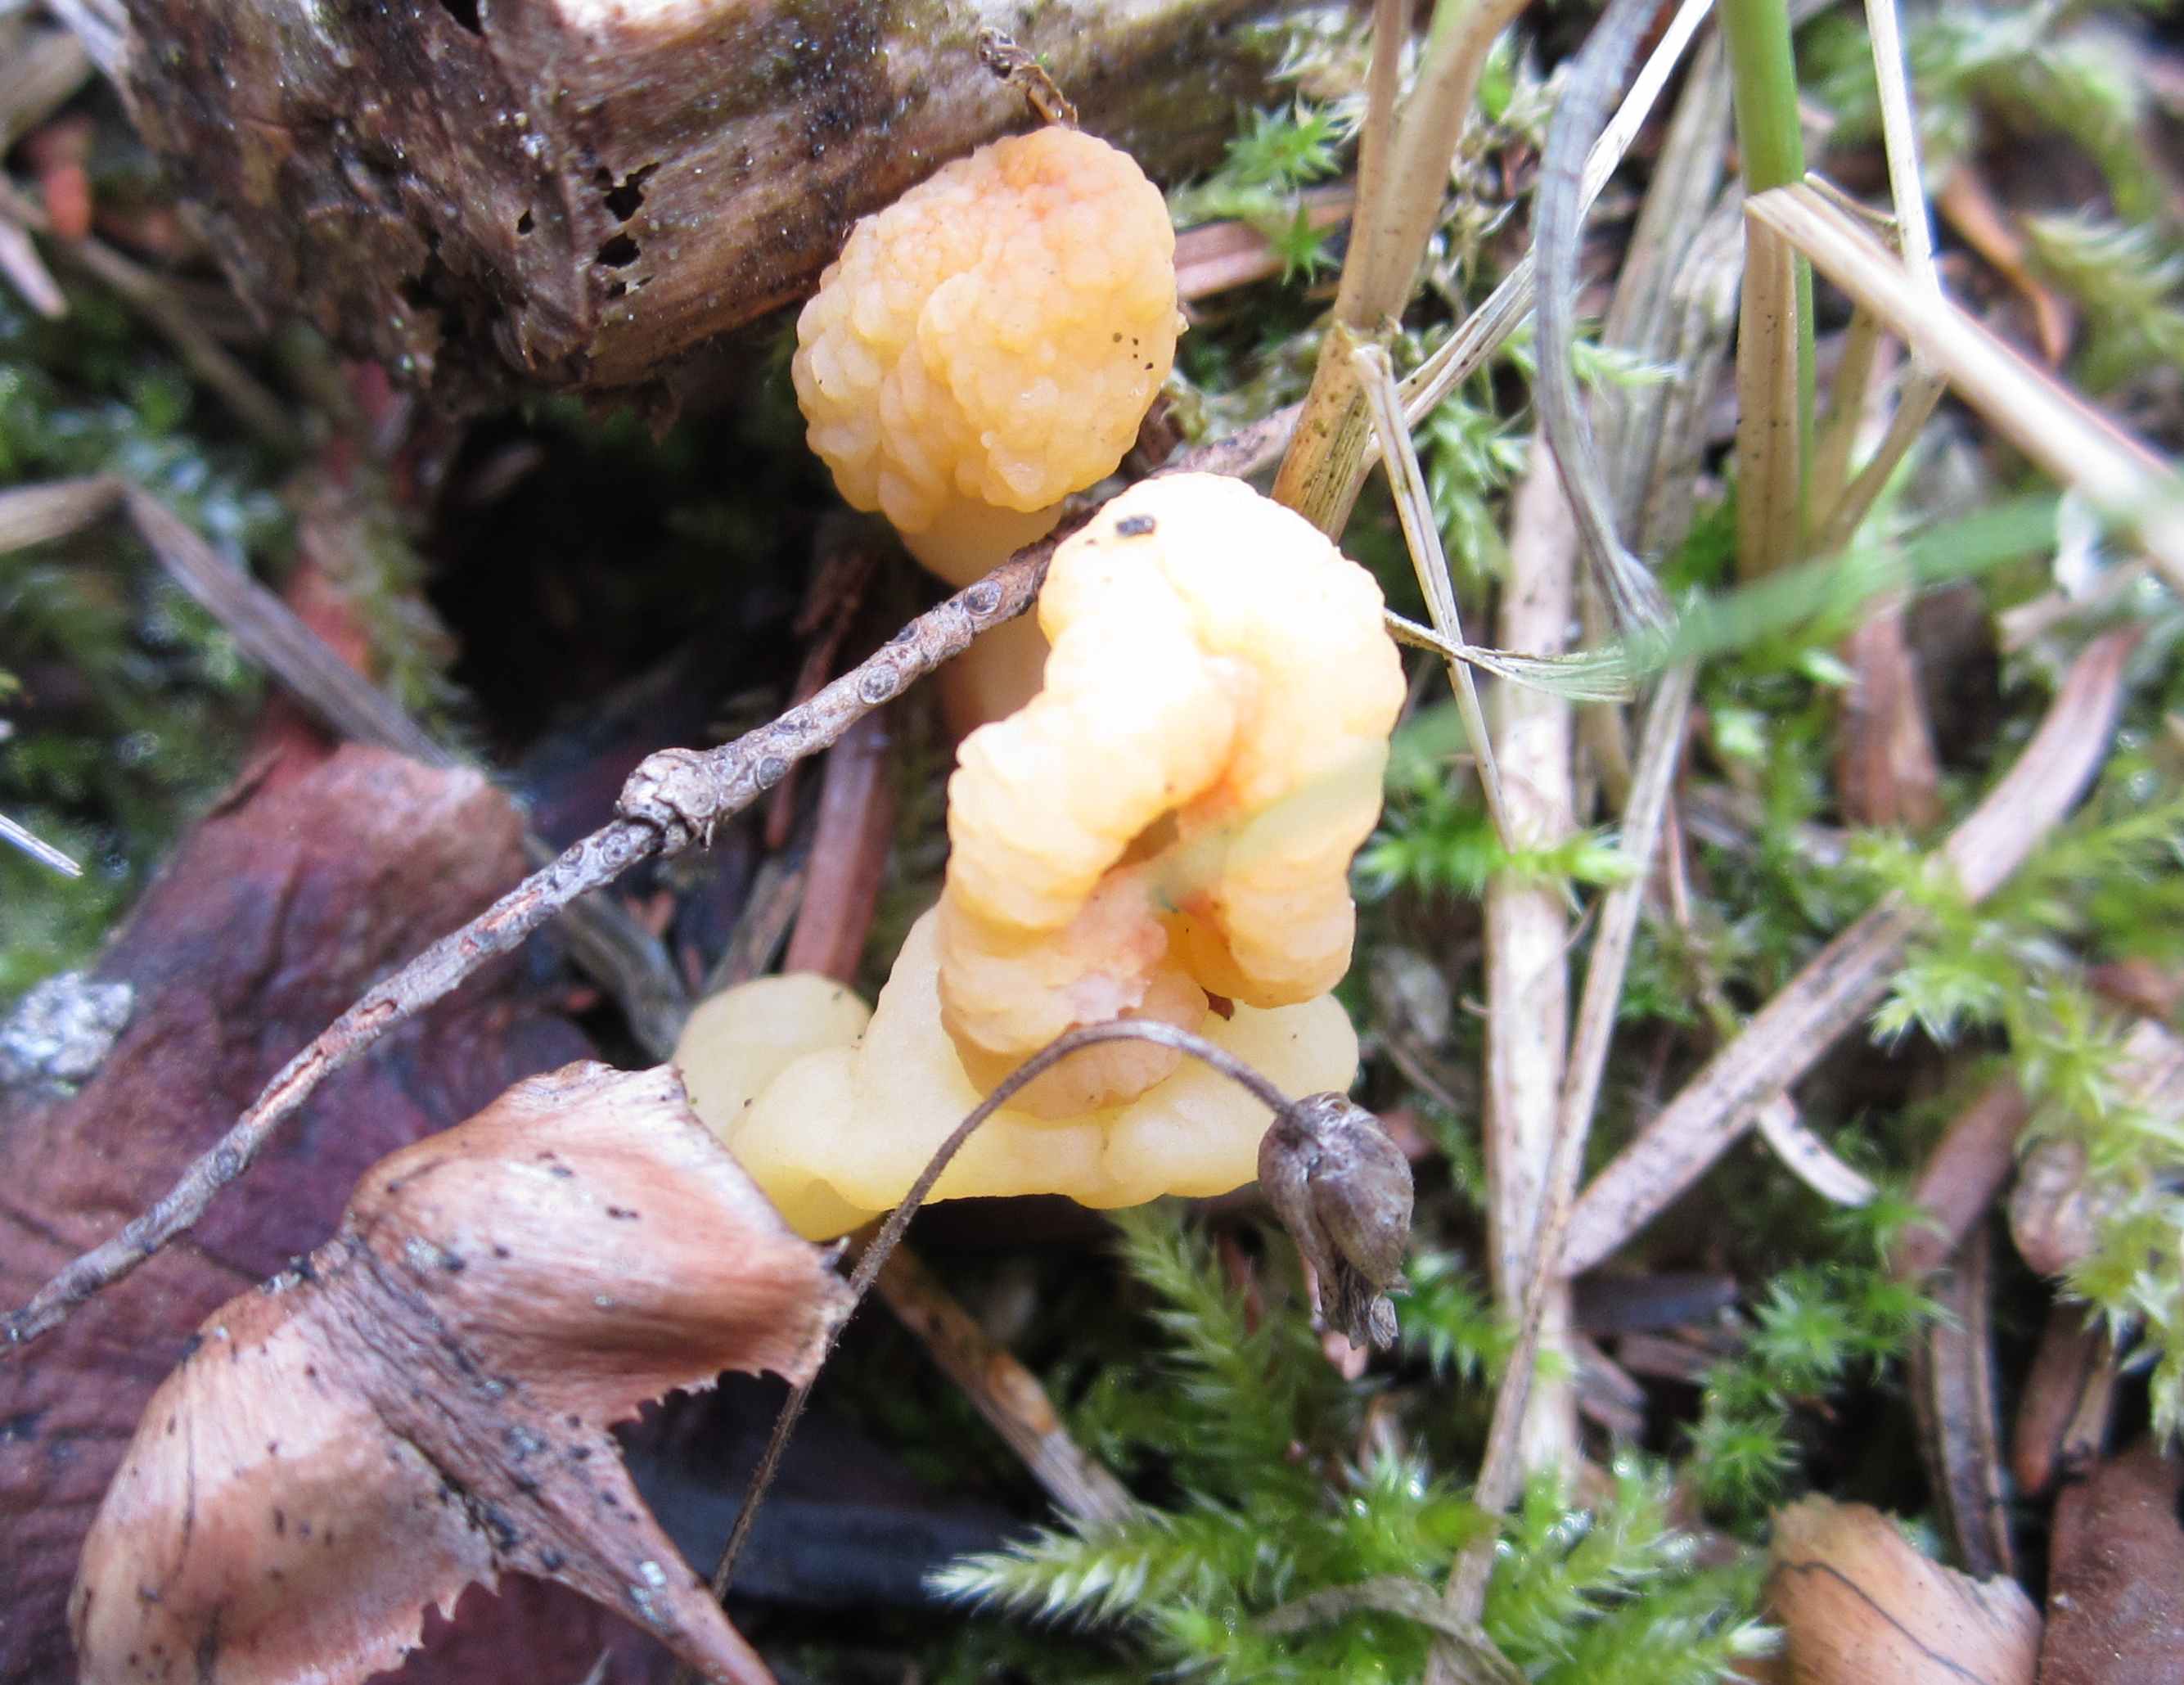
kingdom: Fungi
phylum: Ascomycota
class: Leotiomycetes
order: Rhytismatales
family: Cudoniaceae
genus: Spathularia
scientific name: Spathularia flavida
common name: gul spatelsvamp
